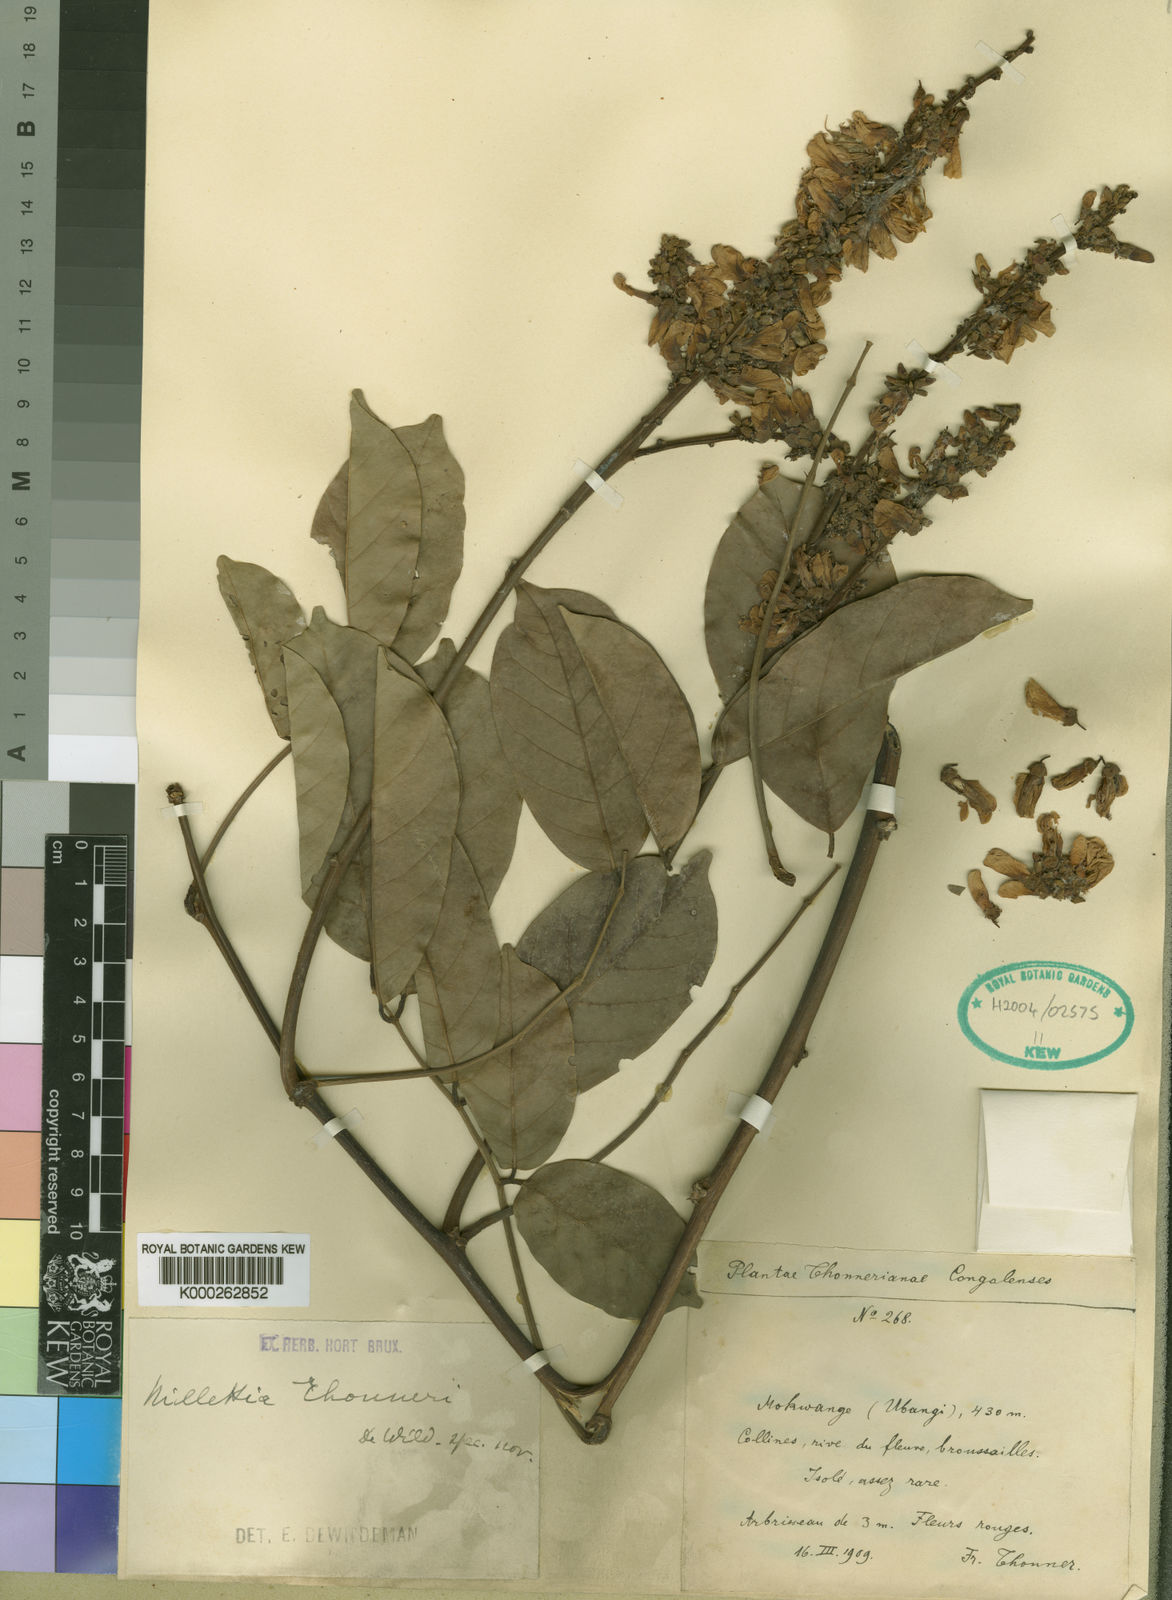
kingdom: Plantae
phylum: Tracheophyta
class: Magnoliopsida
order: Fabales
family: Fabaceae
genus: Millettia
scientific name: Millettia thonneri
